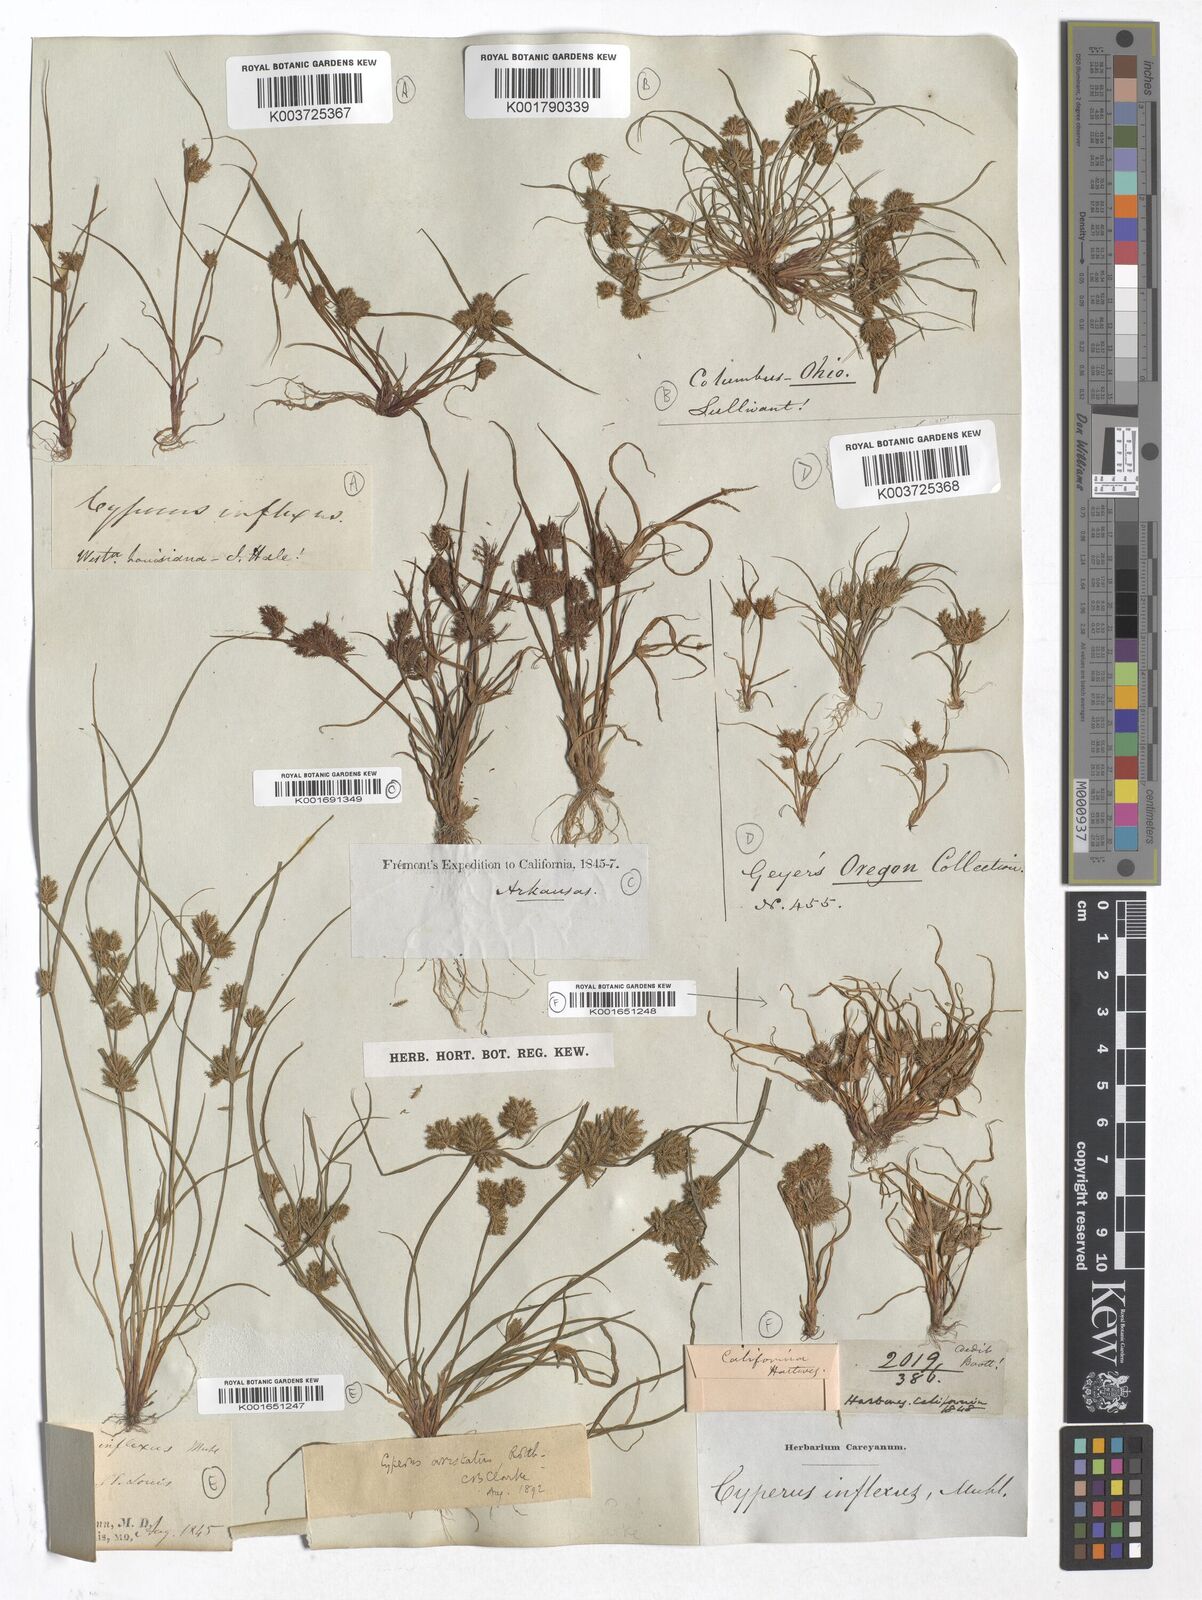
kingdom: Plantae
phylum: Tracheophyta
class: Liliopsida
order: Poales
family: Cyperaceae
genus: Cyperus
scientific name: Cyperus squarrosus
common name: Awned cyperus
